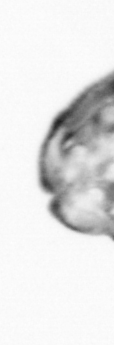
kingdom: Animalia
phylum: Chaetognatha
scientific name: Chaetognatha
